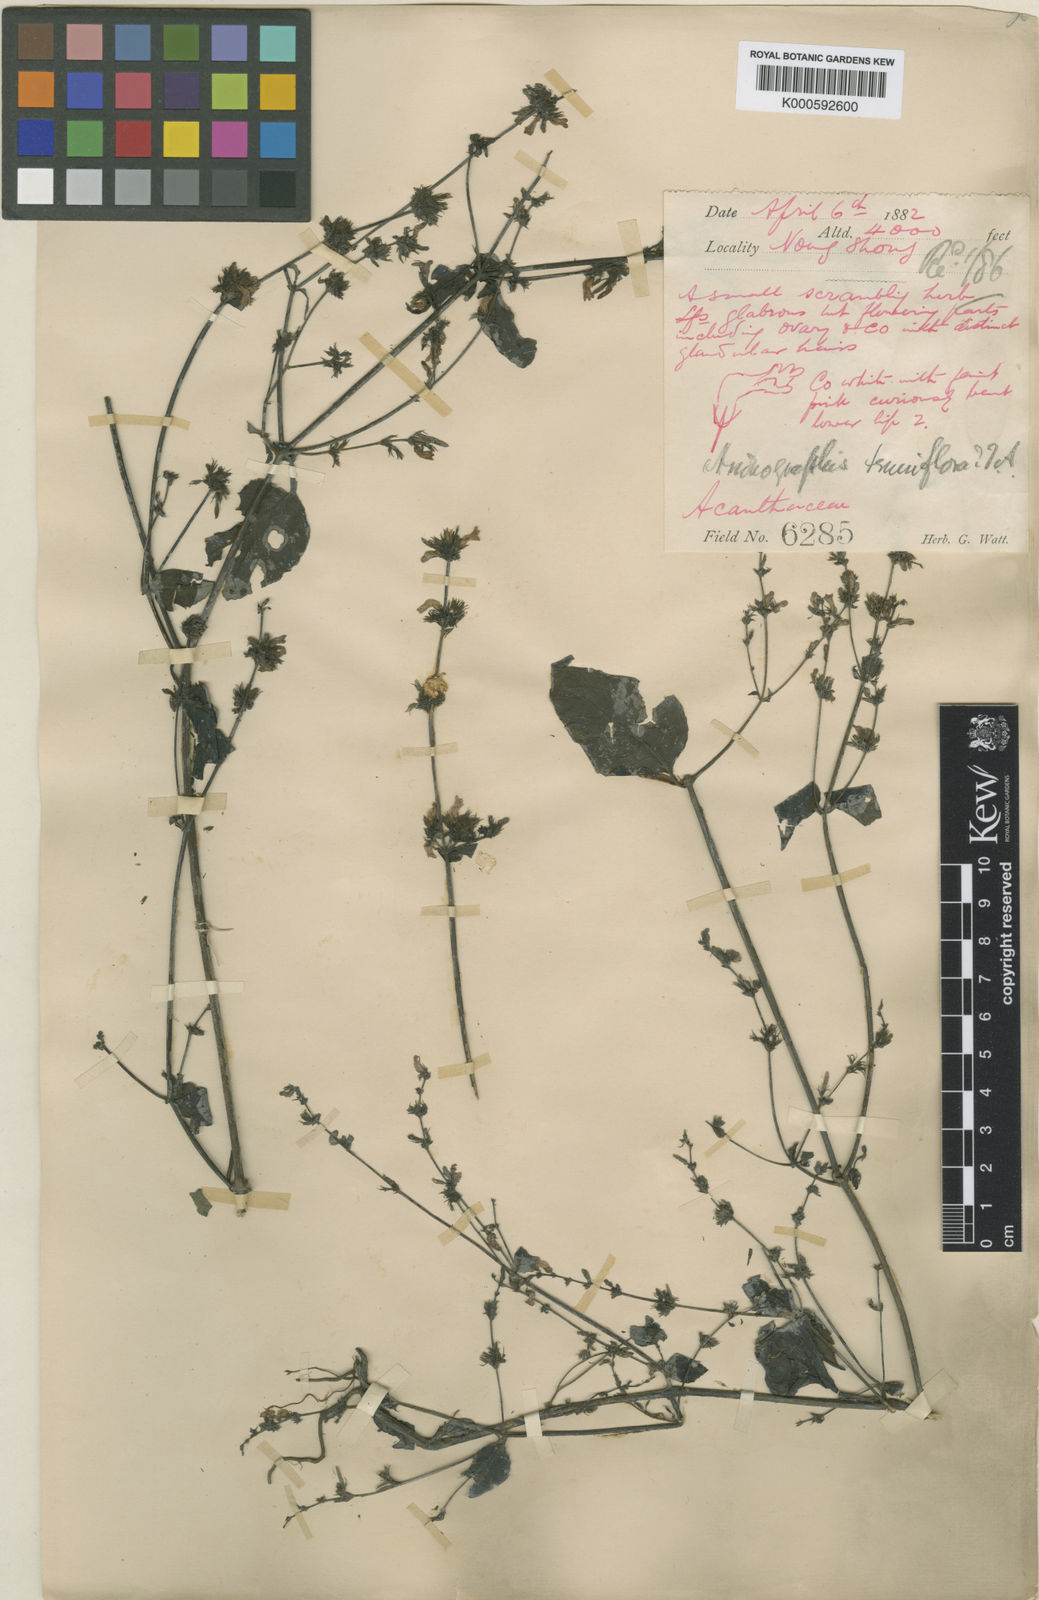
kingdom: Plantae
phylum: Tracheophyta
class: Magnoliopsida
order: Lamiales
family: Acanthaceae
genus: Haplanthus
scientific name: Haplanthus laxiflorus
